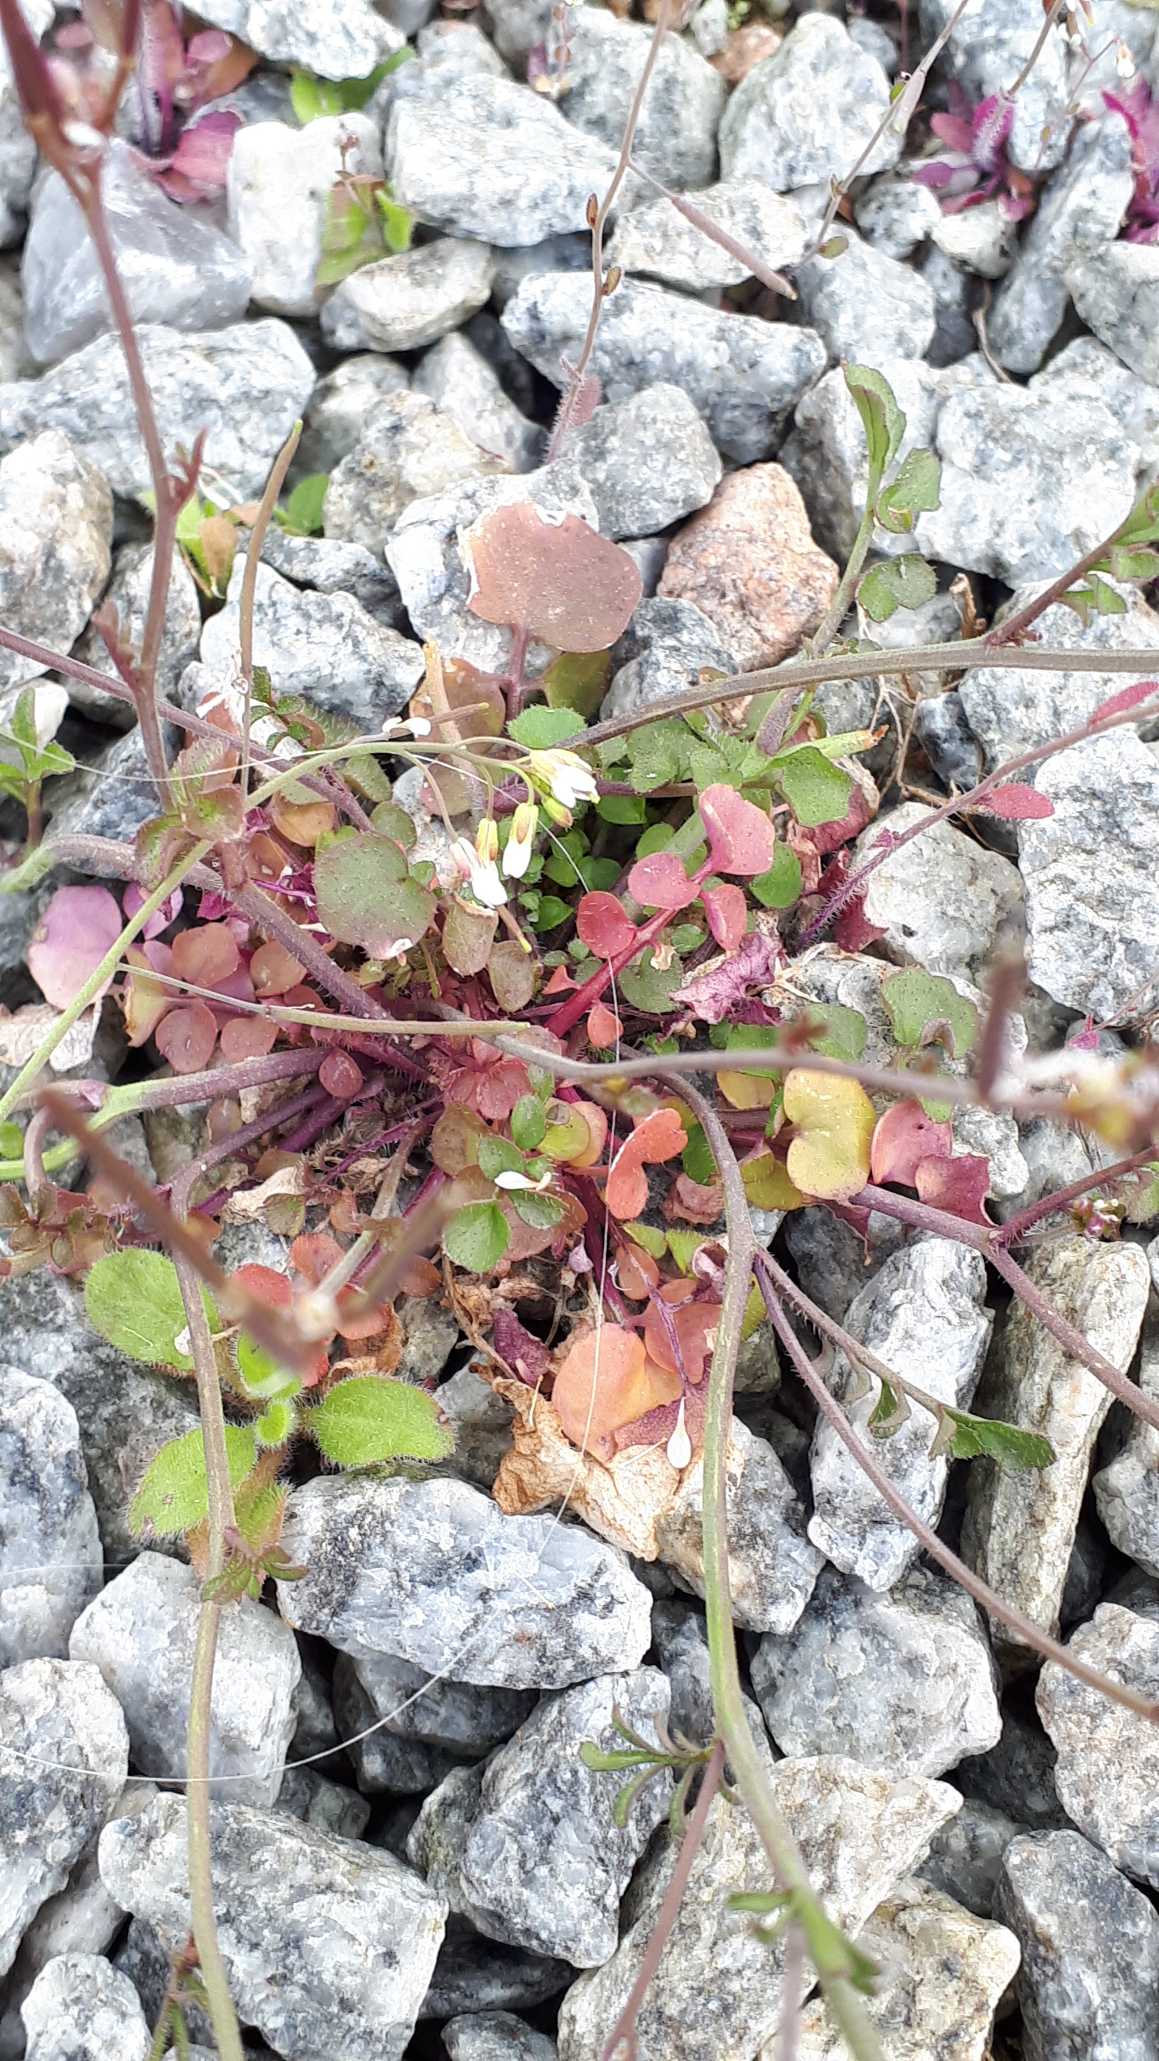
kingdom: Plantae
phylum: Tracheophyta
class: Magnoliopsida
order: Brassicales
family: Brassicaceae
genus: Cardamine
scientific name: Cardamine hirsuta
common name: Roset-springklap
